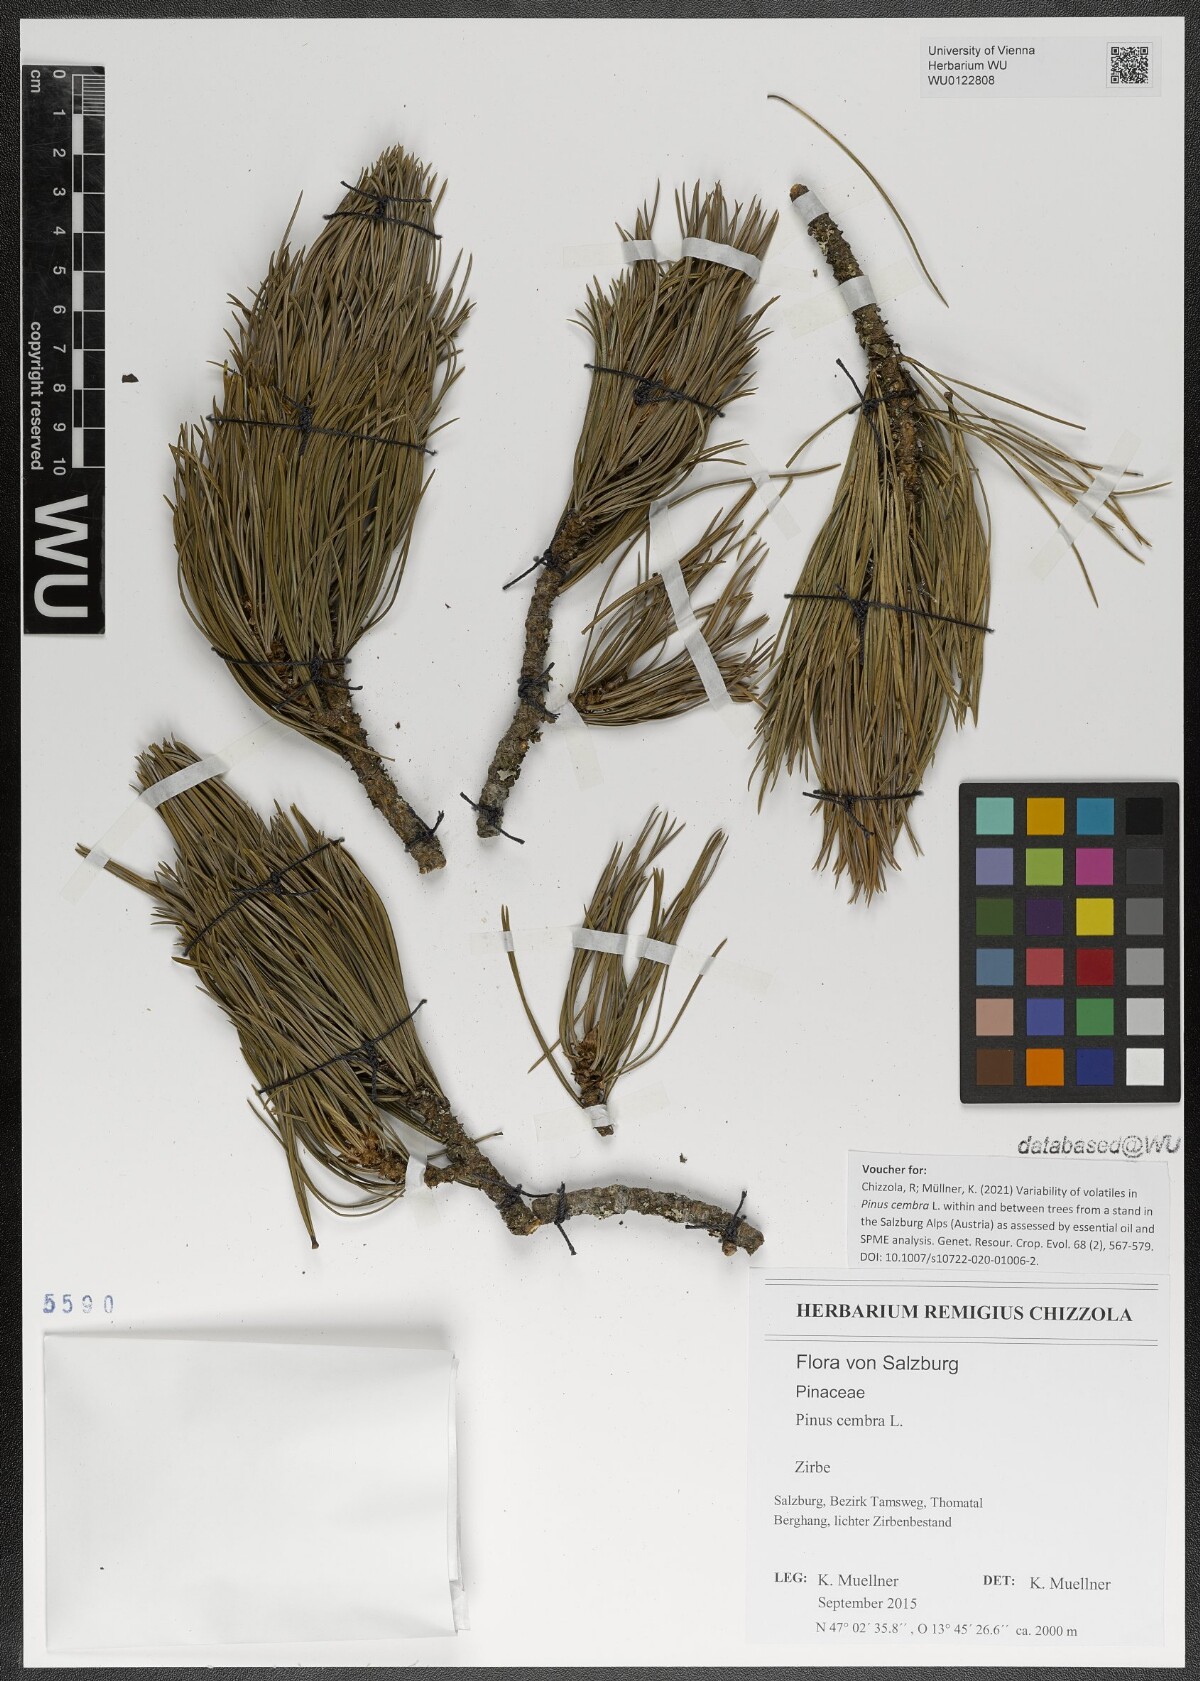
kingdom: Plantae
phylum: Tracheophyta
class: Pinopsida
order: Pinales
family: Pinaceae
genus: Pinus
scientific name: Pinus cembra
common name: Arolla pine
